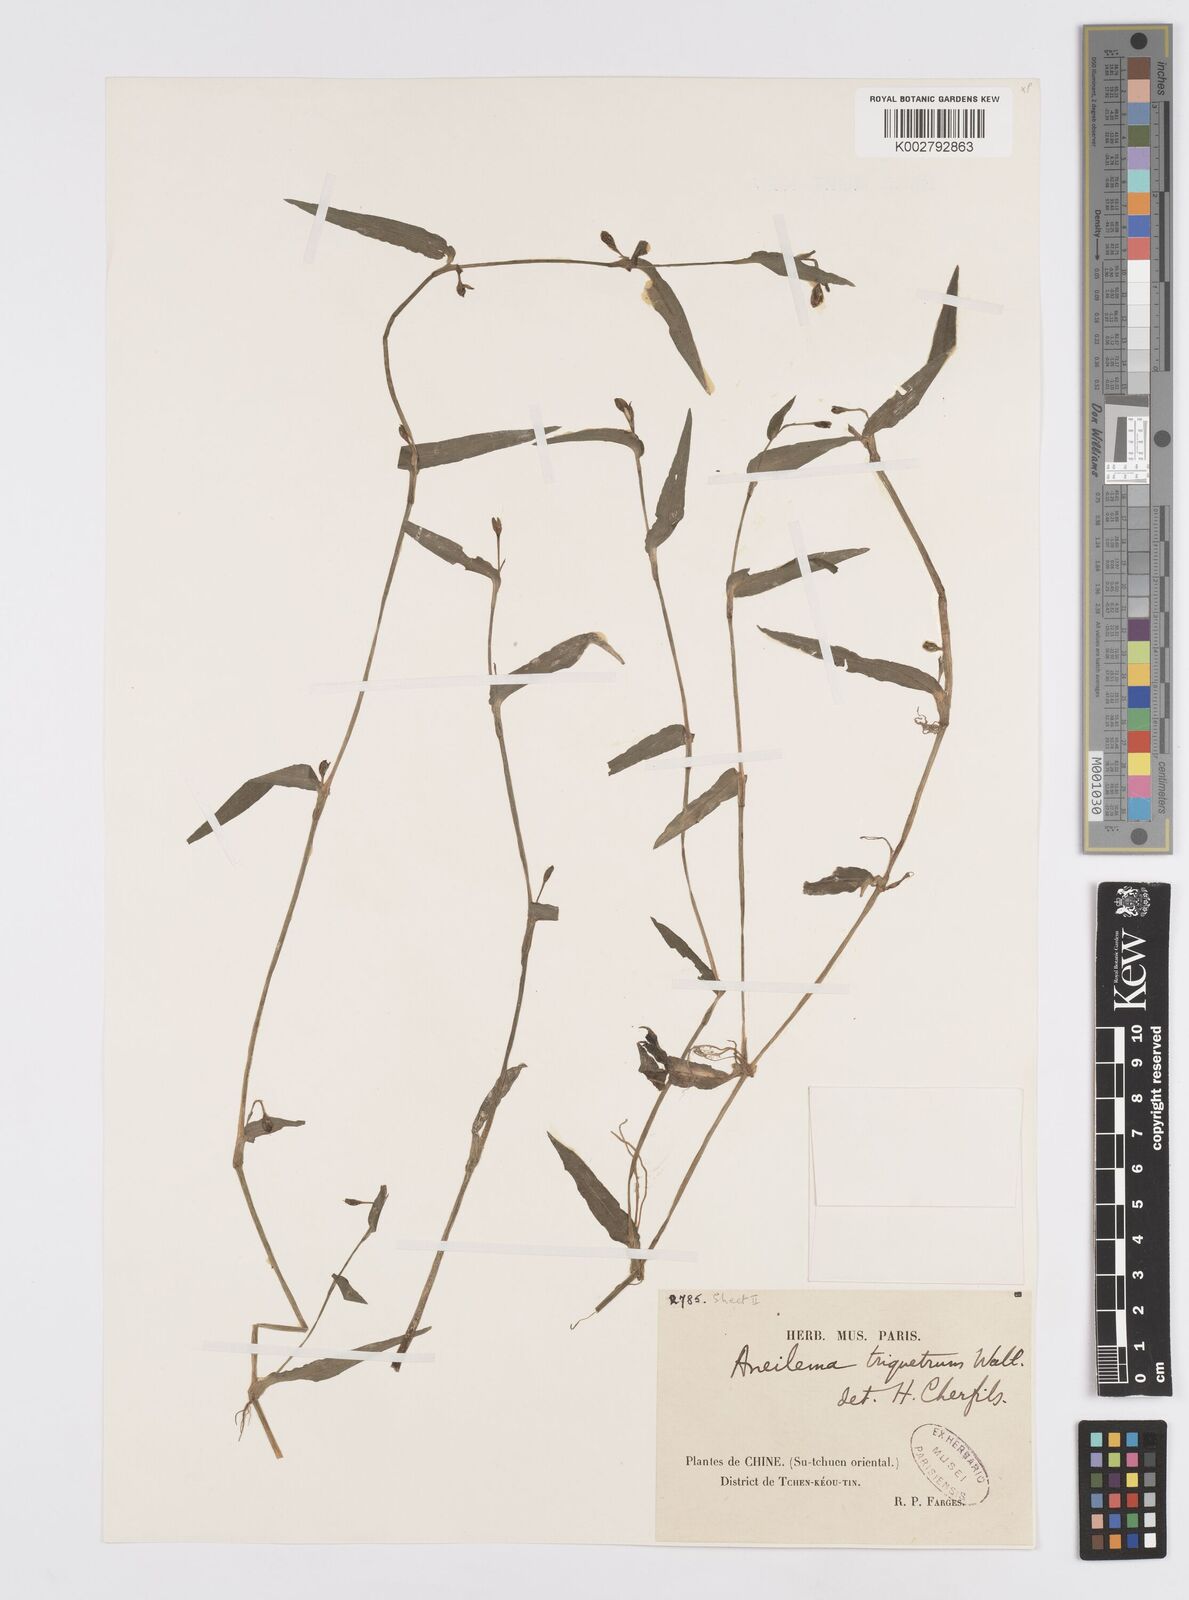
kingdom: Plantae
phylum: Tracheophyta
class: Liliopsida
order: Commelinales
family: Commelinaceae
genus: Murdannia
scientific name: Murdannia triquetra
